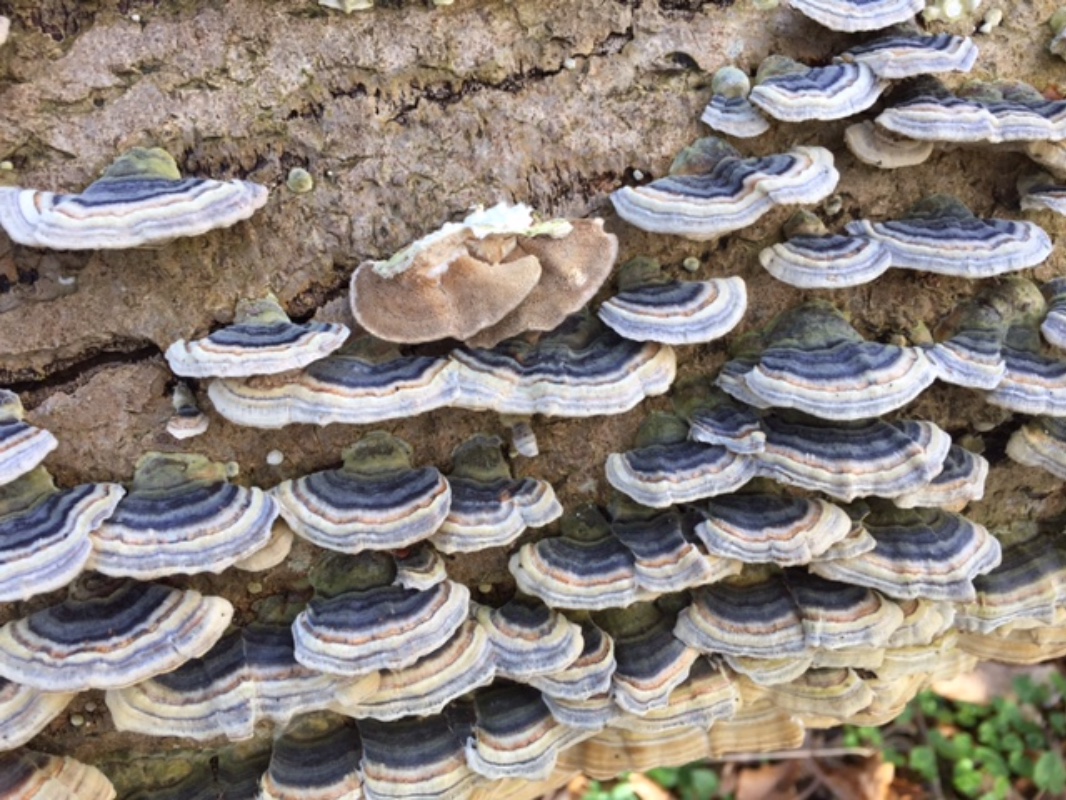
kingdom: Fungi
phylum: Basidiomycota
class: Agaricomycetes
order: Polyporales
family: Polyporaceae
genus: Trametes
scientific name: Trametes versicolor
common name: broget læderporesvamp
